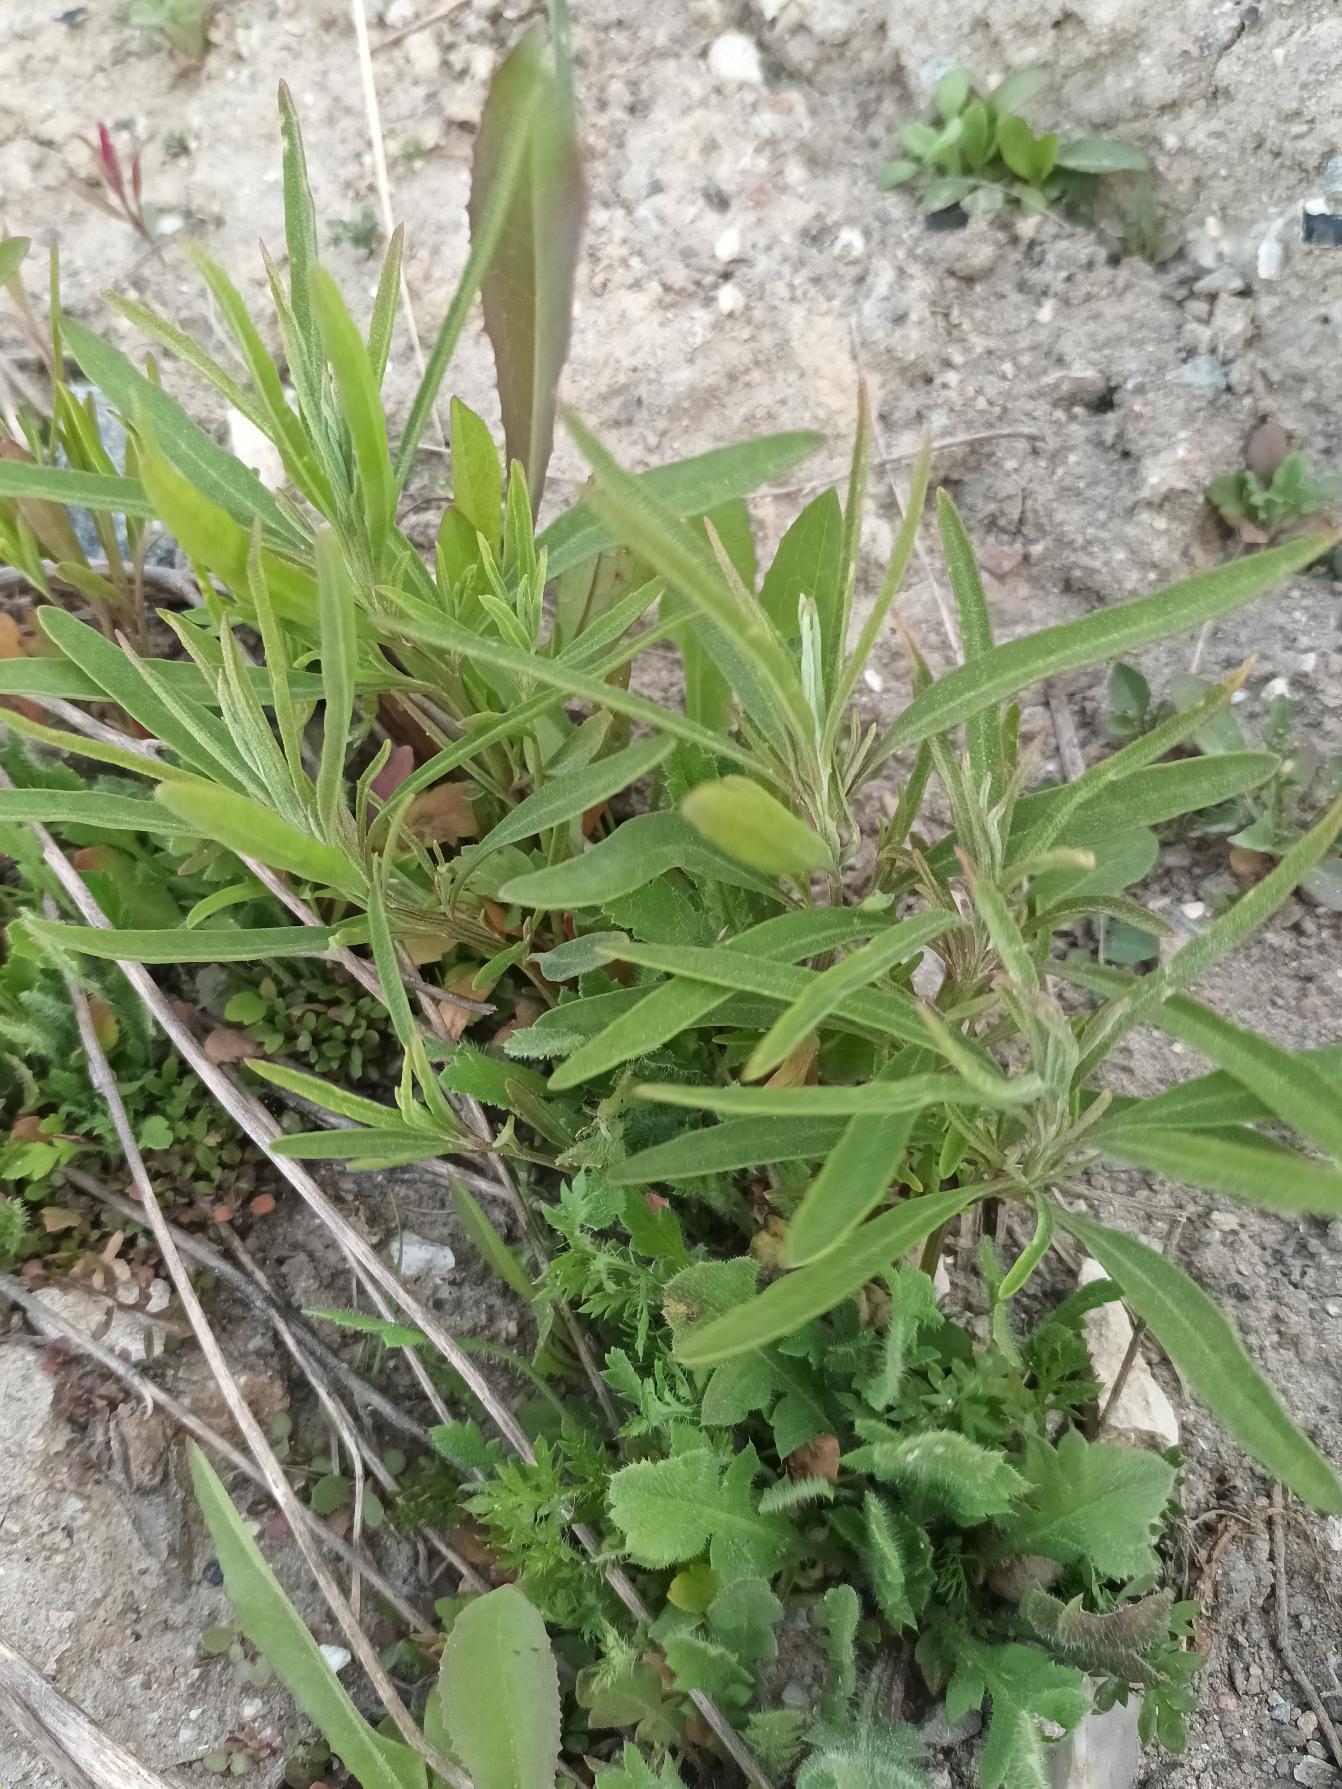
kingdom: Plantae
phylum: Tracheophyta
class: Magnoliopsida
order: Caryophyllales
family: Amaranthaceae
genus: Atriplex
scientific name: Atriplex littoralis
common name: Strand-mælde
